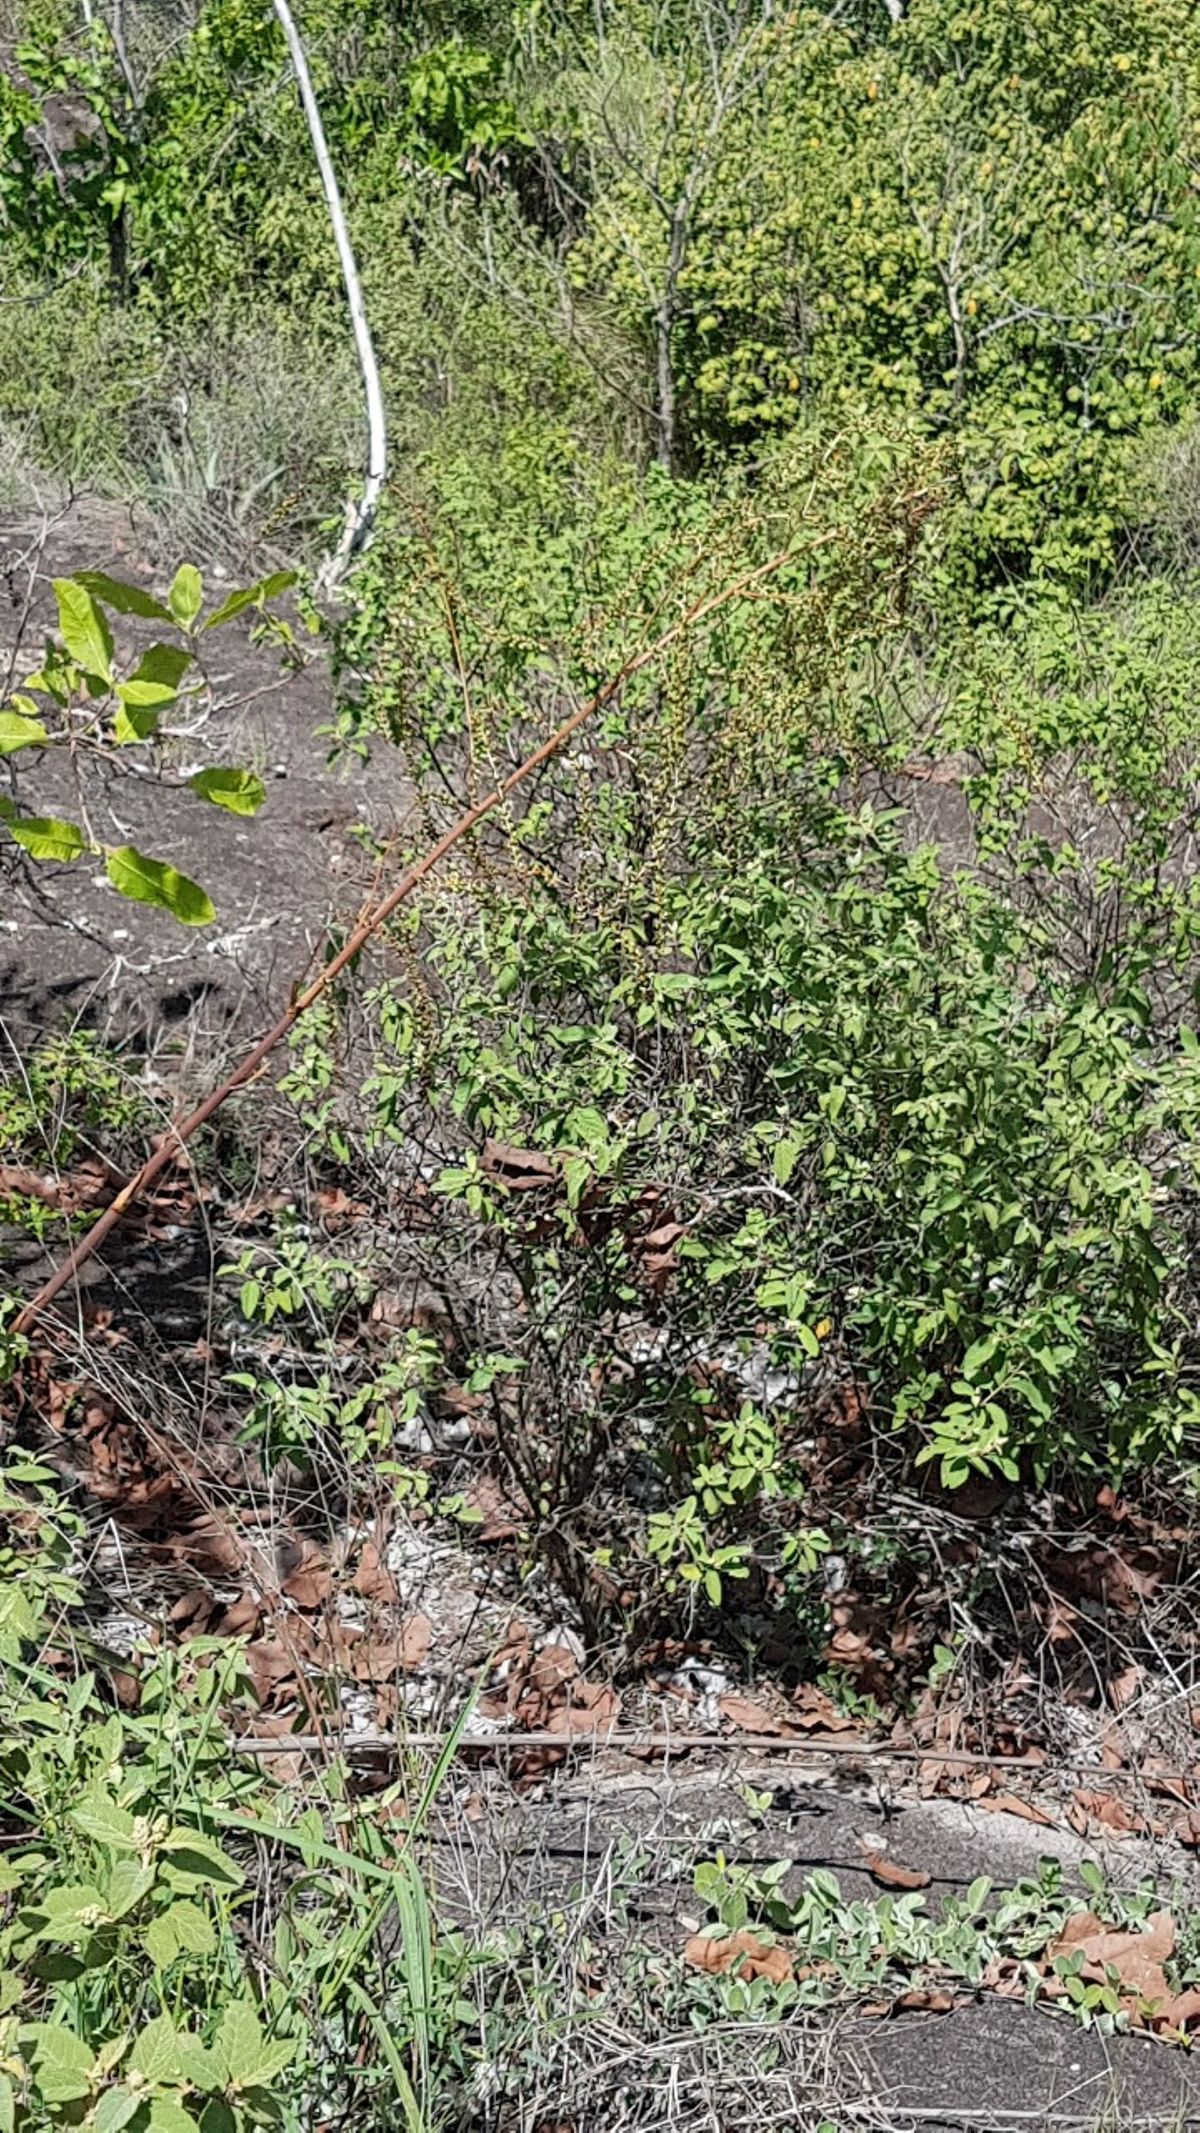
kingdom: Plantae
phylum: Tracheophyta
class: Liliopsida
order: Poales
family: Bromeliaceae
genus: Hechtia
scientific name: Hechtia guatemalensis
